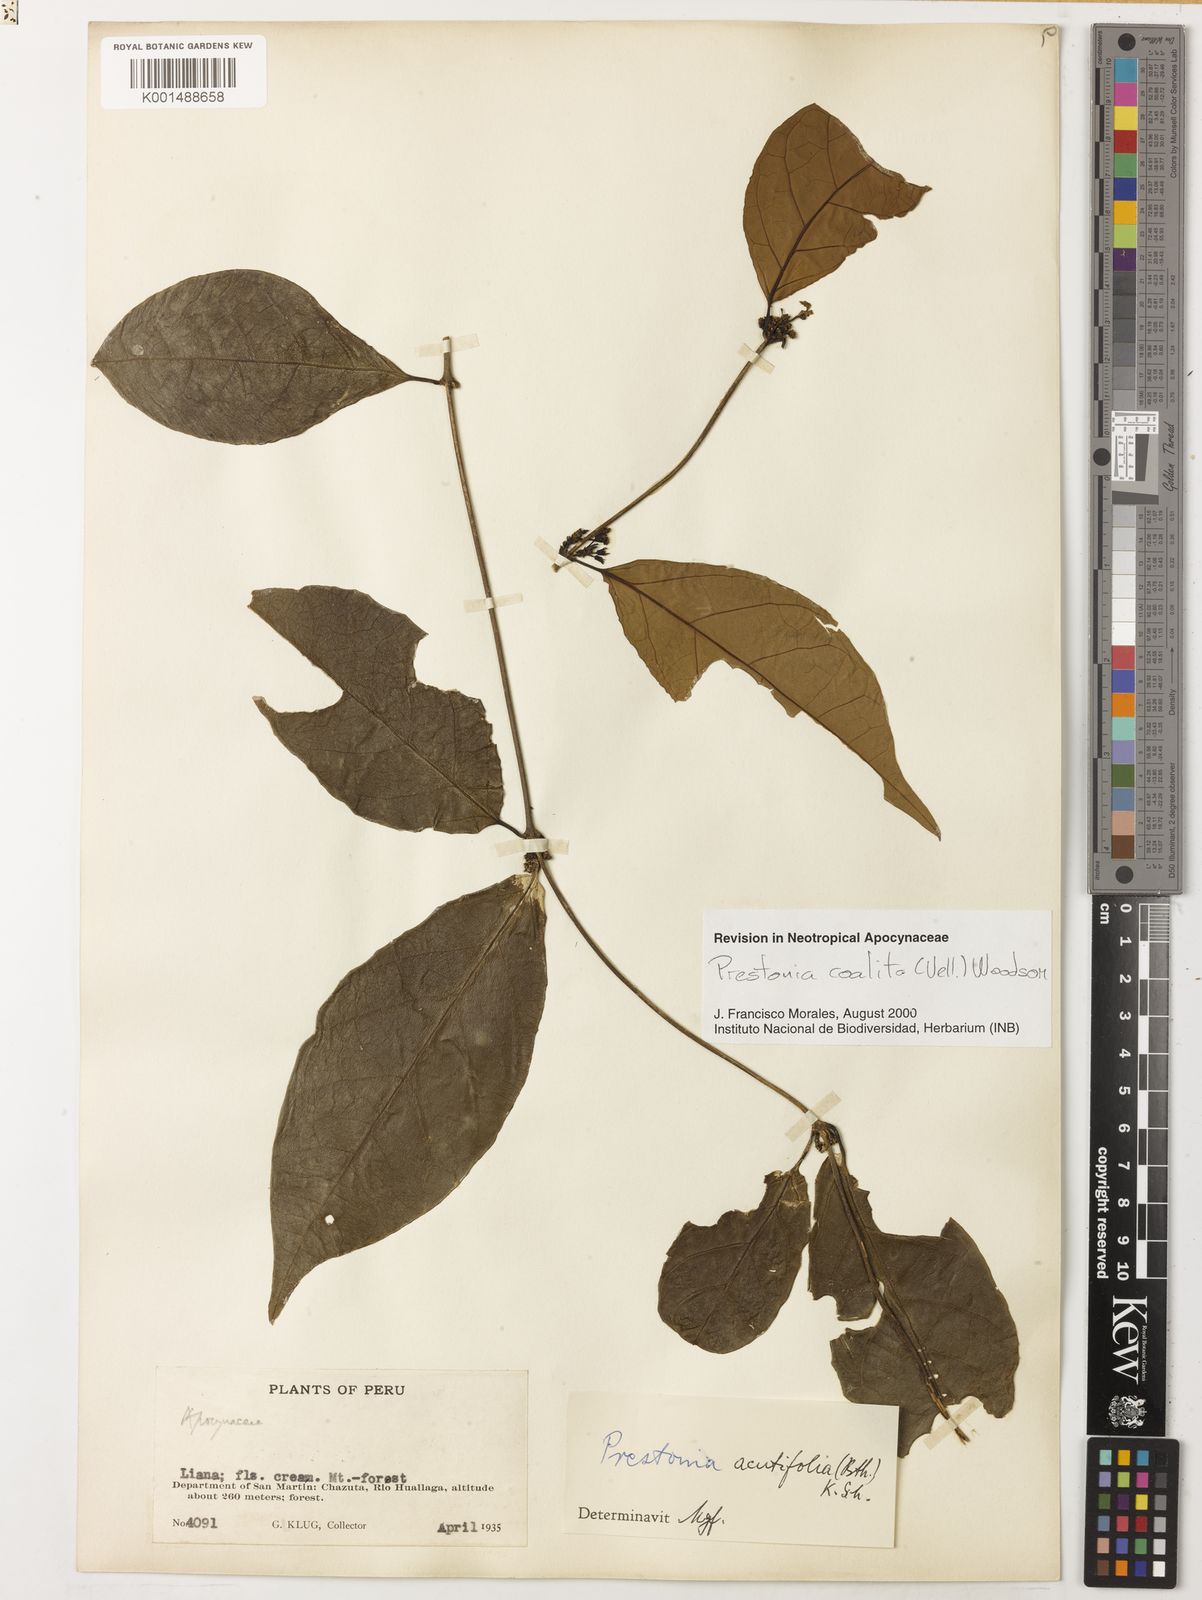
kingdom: Plantae
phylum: Tracheophyta
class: Magnoliopsida
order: Gentianales
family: Apocynaceae
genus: Prestonia
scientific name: Prestonia coalita
